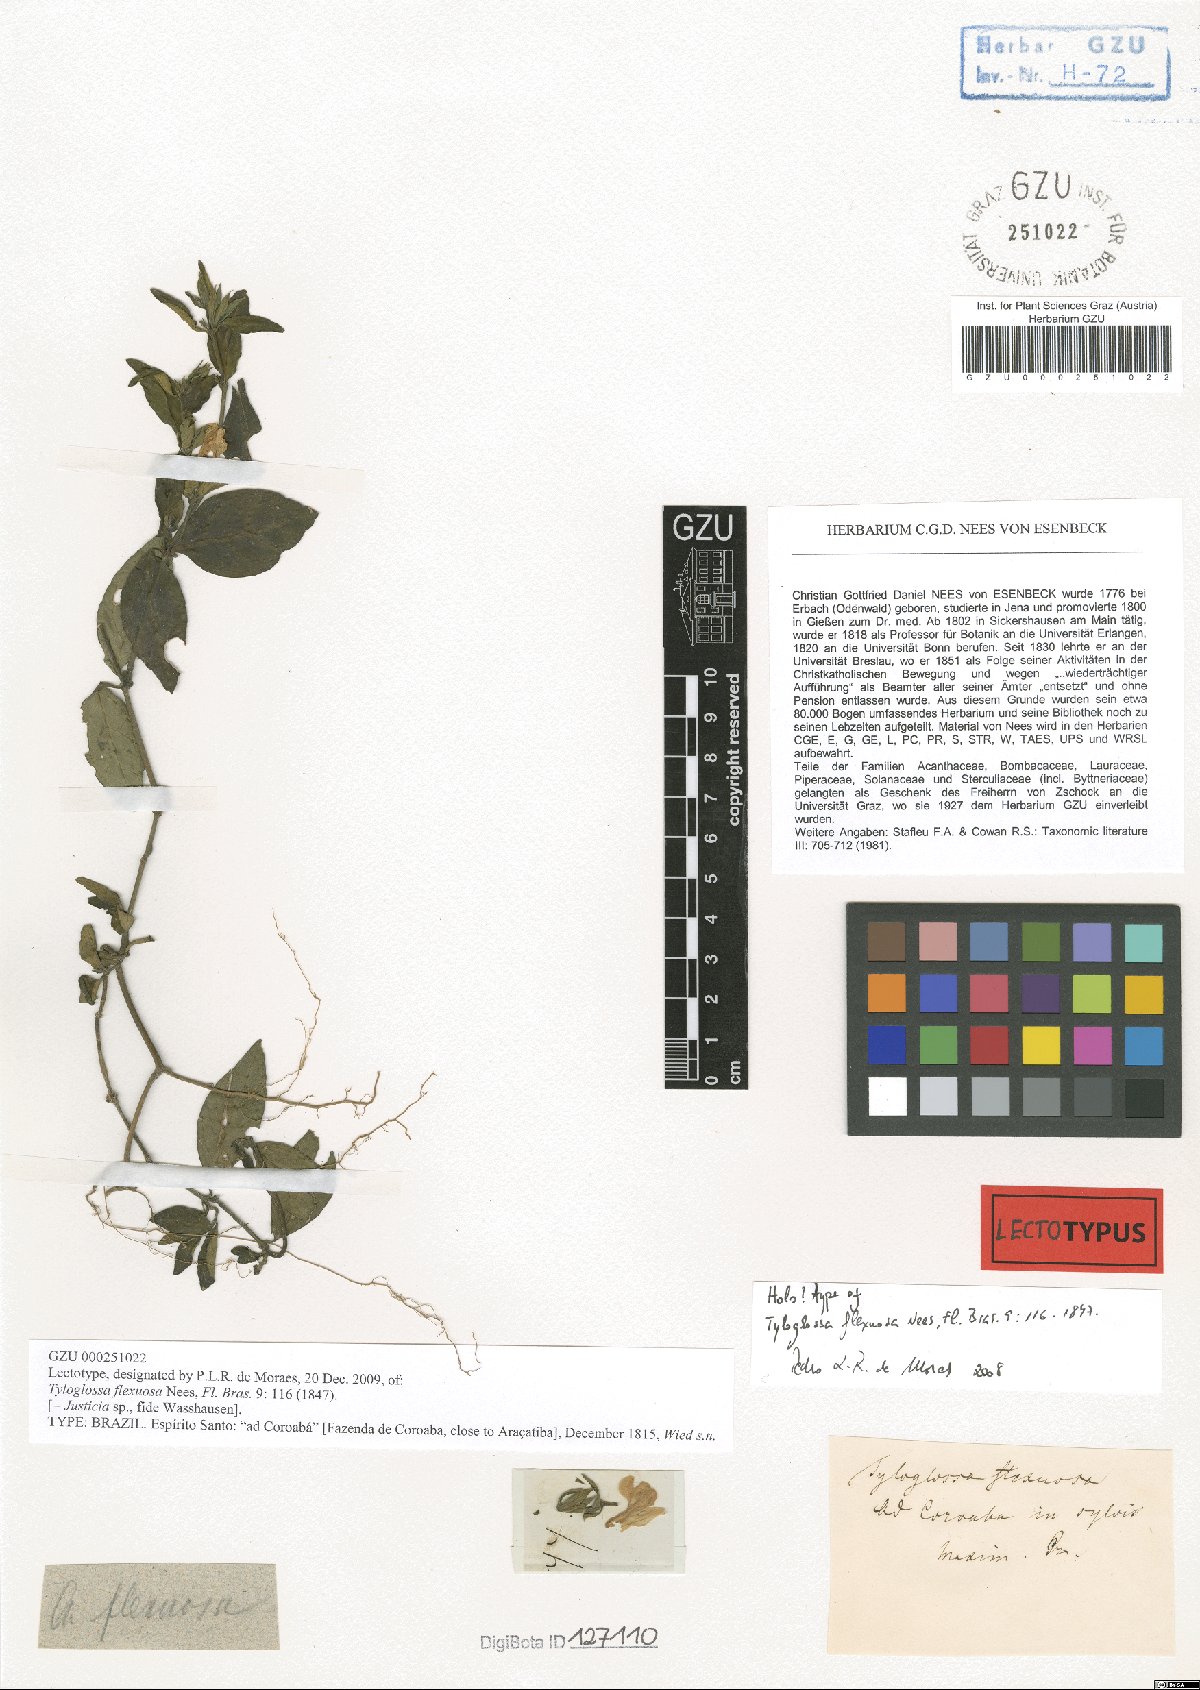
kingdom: Plantae
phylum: Tracheophyta
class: Magnoliopsida
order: Lamiales
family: Acanthaceae
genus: Poikilacanthus
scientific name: Poikilacanthus glandulosus
